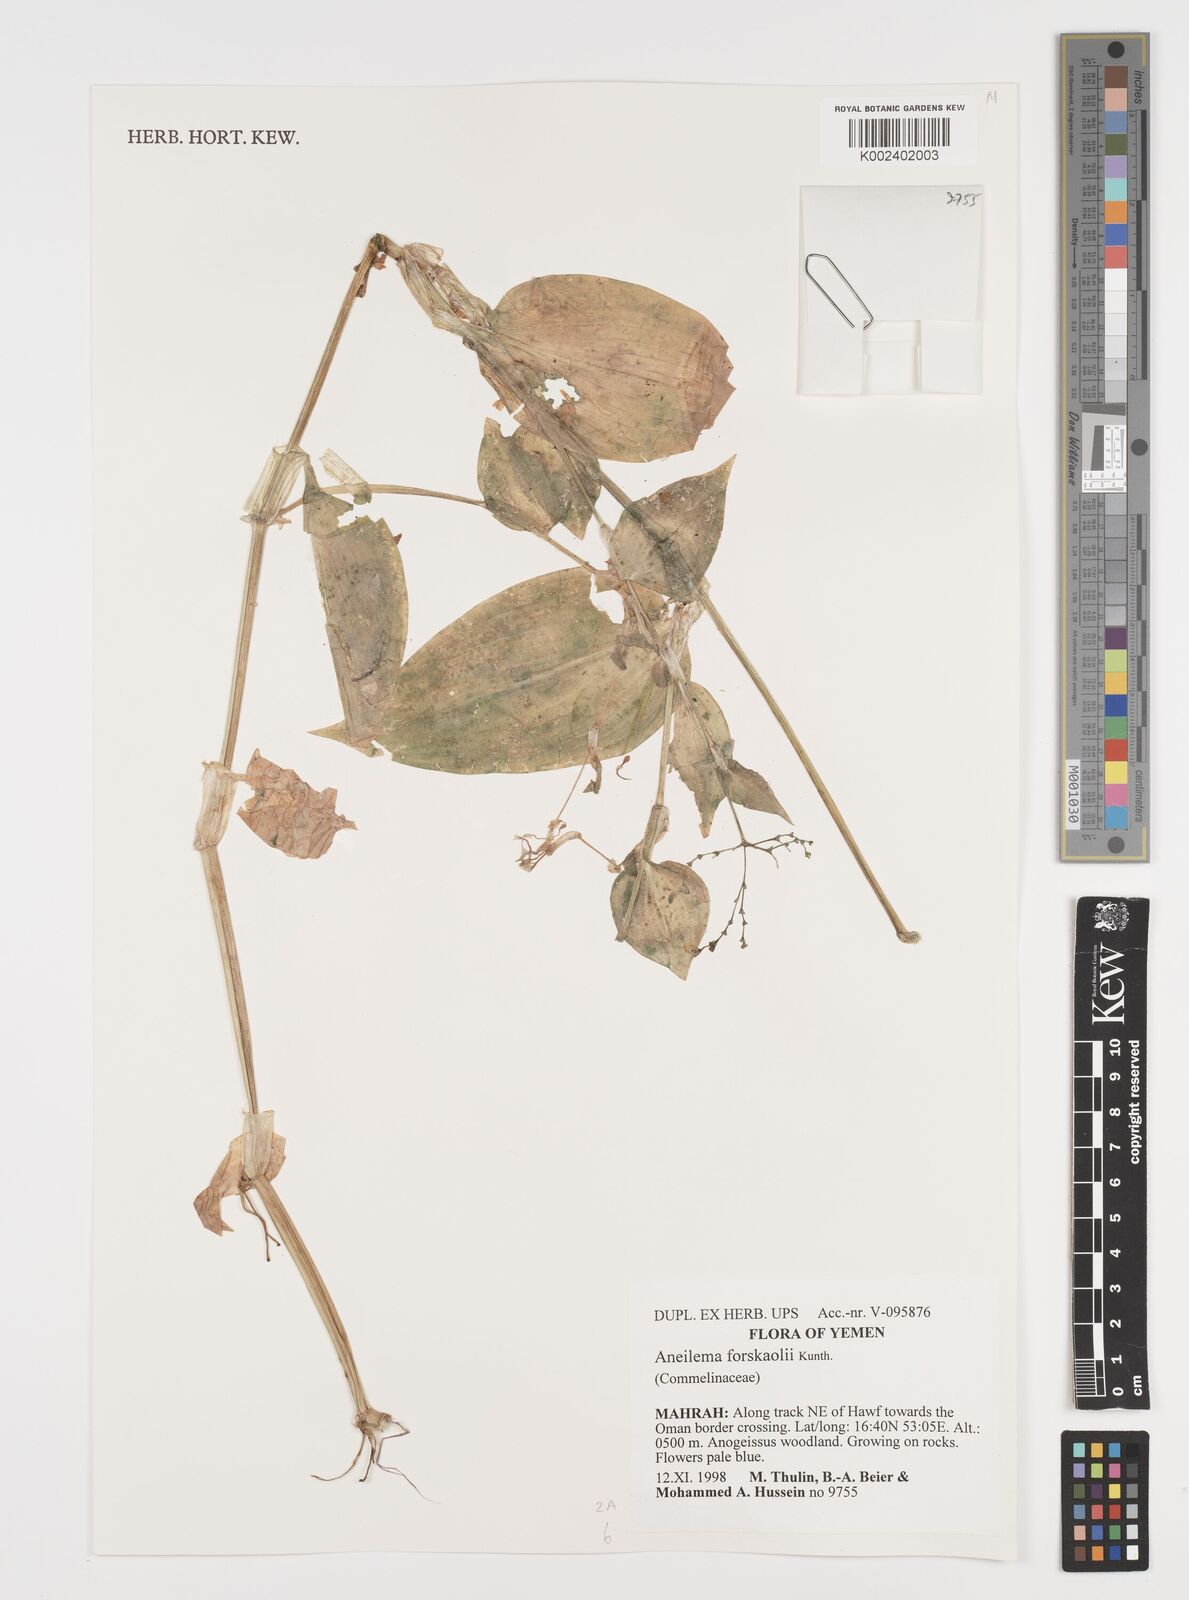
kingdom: Plantae
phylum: Tracheophyta
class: Liliopsida
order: Commelinales
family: Commelinaceae
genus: Aneilema
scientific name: Aneilema forskalii
